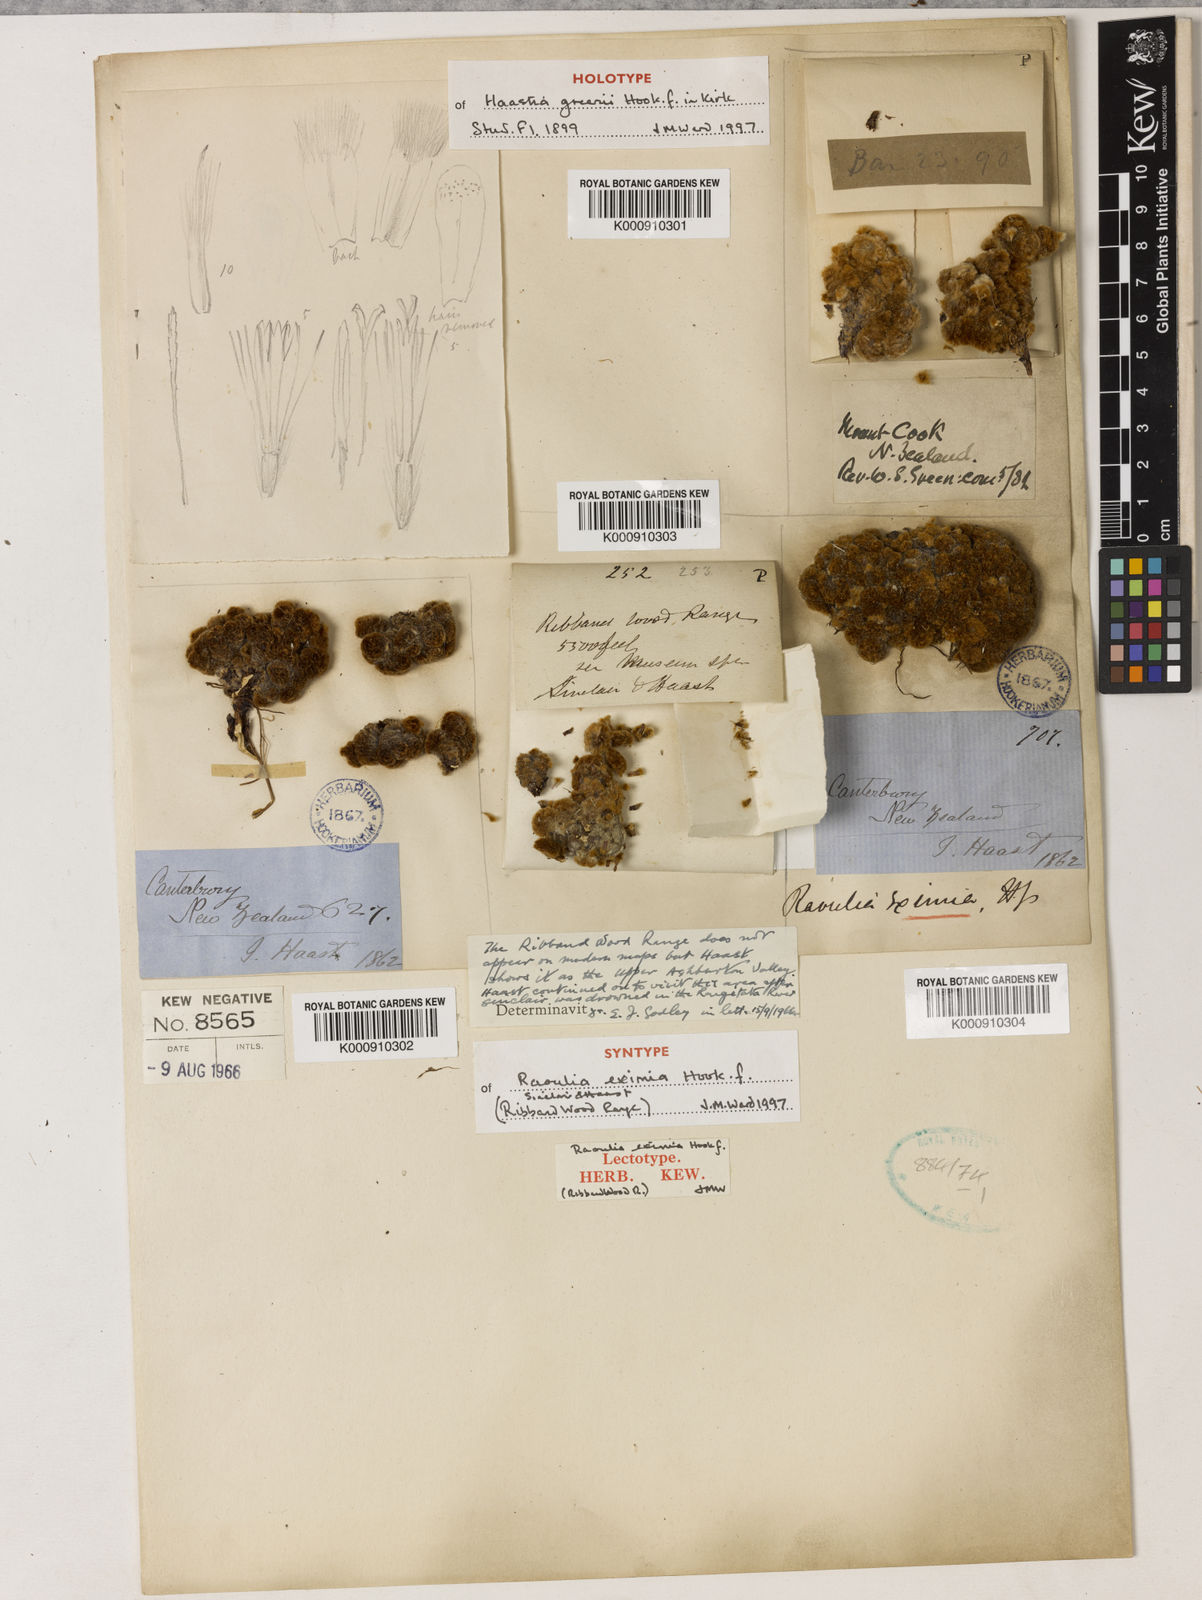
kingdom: Plantae
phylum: Tracheophyta
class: Magnoliopsida
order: Asterales
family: Asteraceae
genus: Raoulia
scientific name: Raoulia eximia
